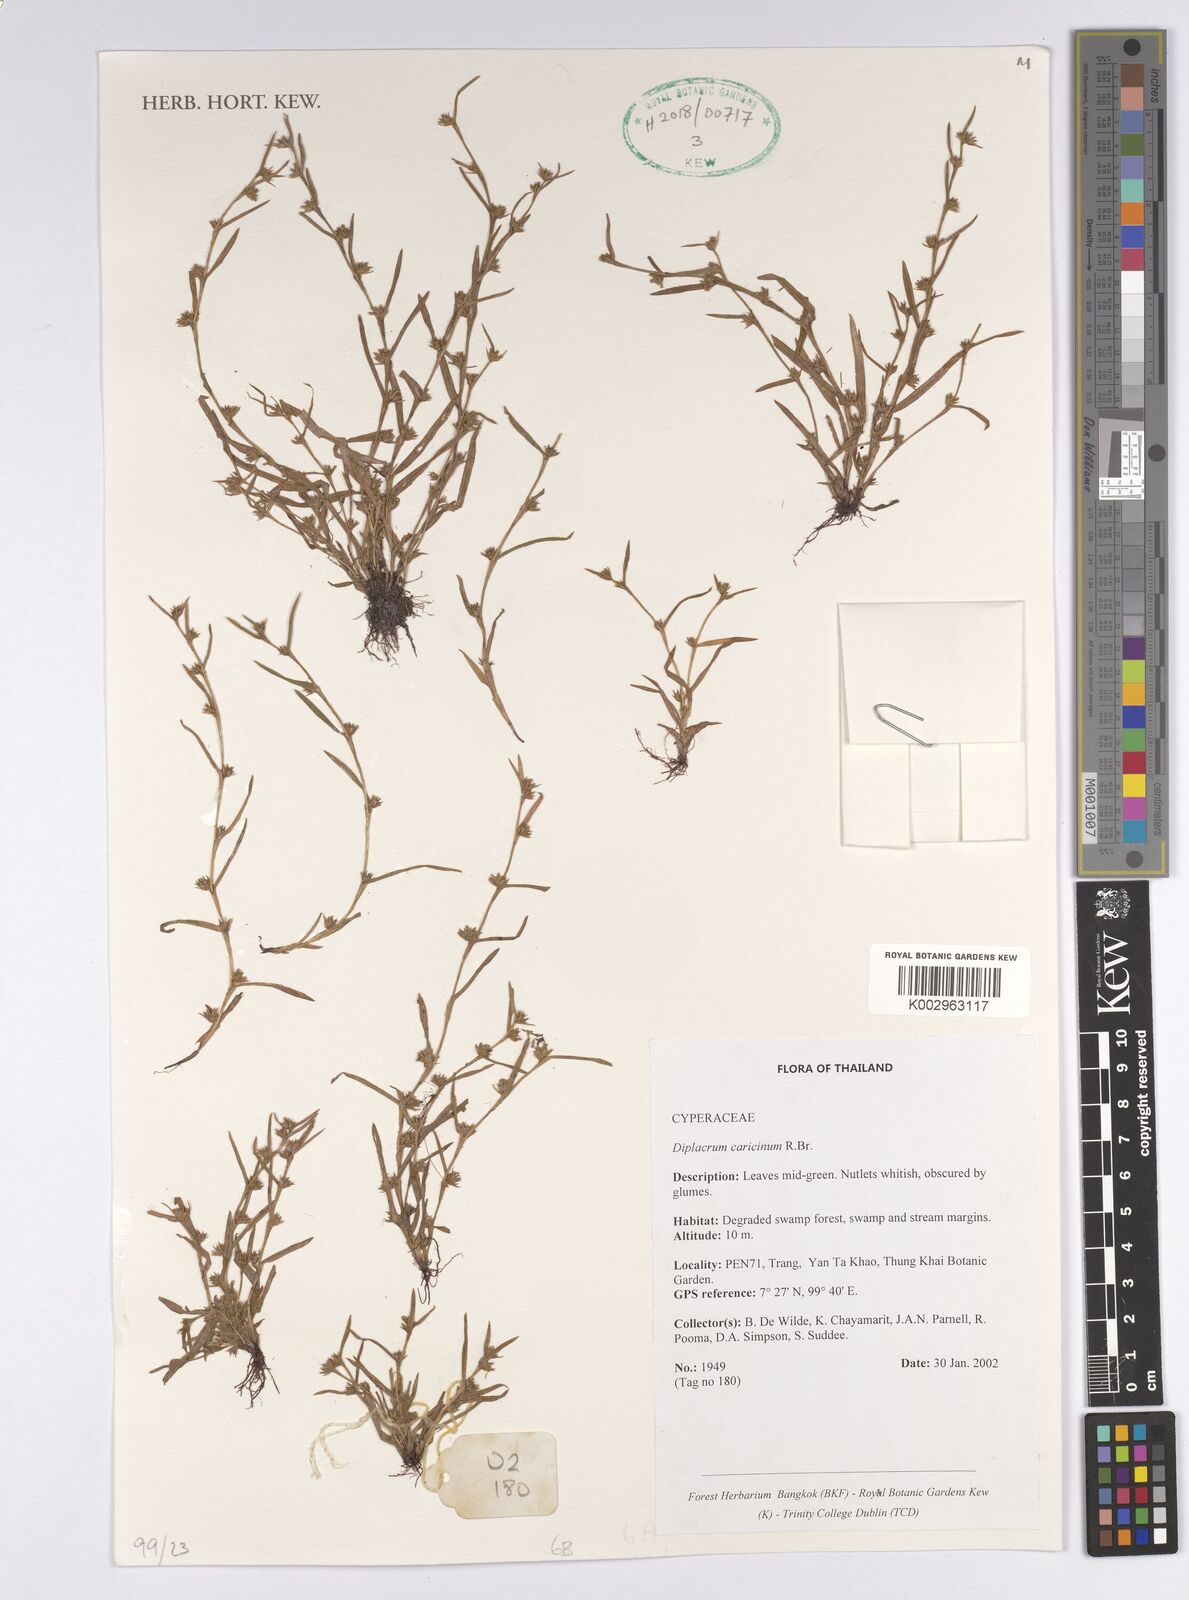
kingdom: Plantae
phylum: Tracheophyta
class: Liliopsida
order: Poales
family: Cyperaceae
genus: Diplacrum
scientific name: Diplacrum caricinum
